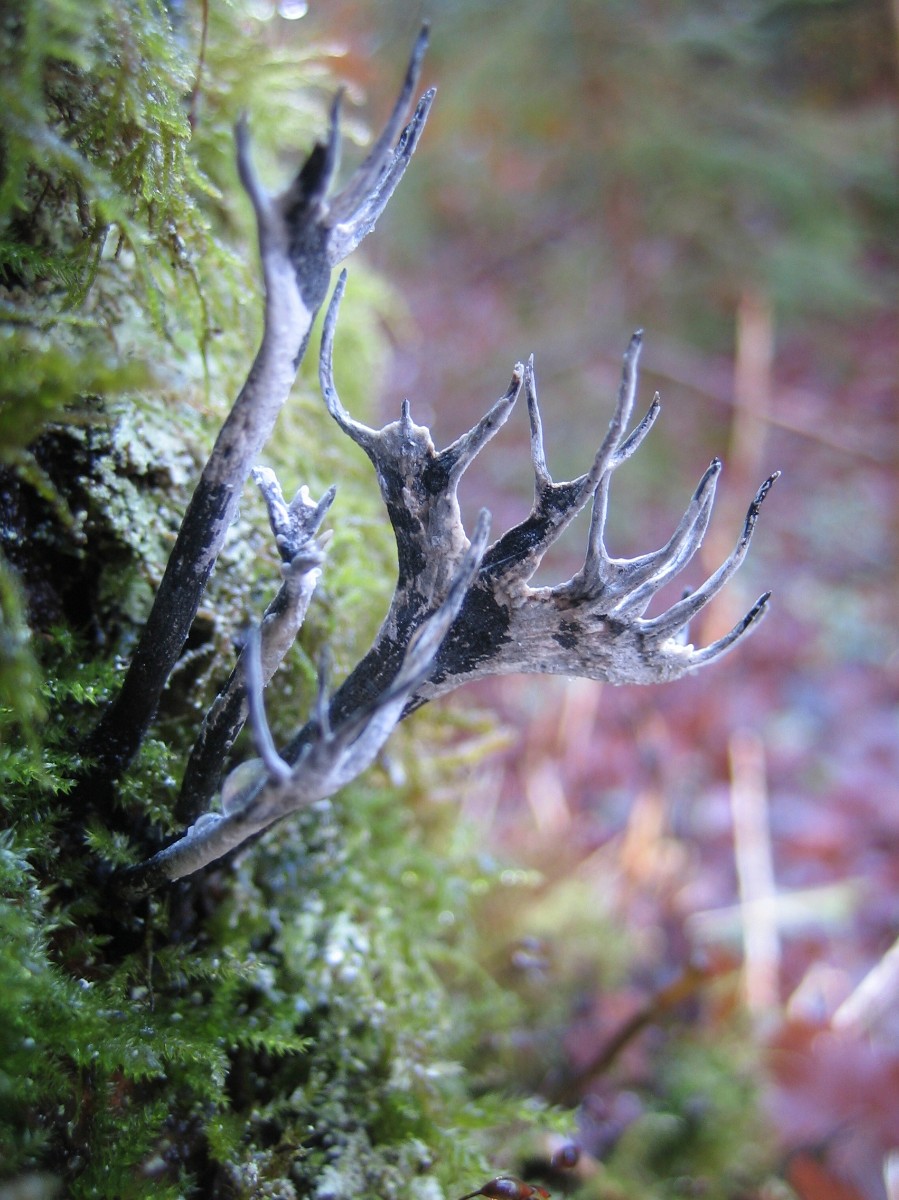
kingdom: Fungi
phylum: Ascomycota
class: Sordariomycetes
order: Xylariales
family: Xylariaceae
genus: Xylaria
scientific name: Xylaria hypoxylon
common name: grenet stødsvamp
